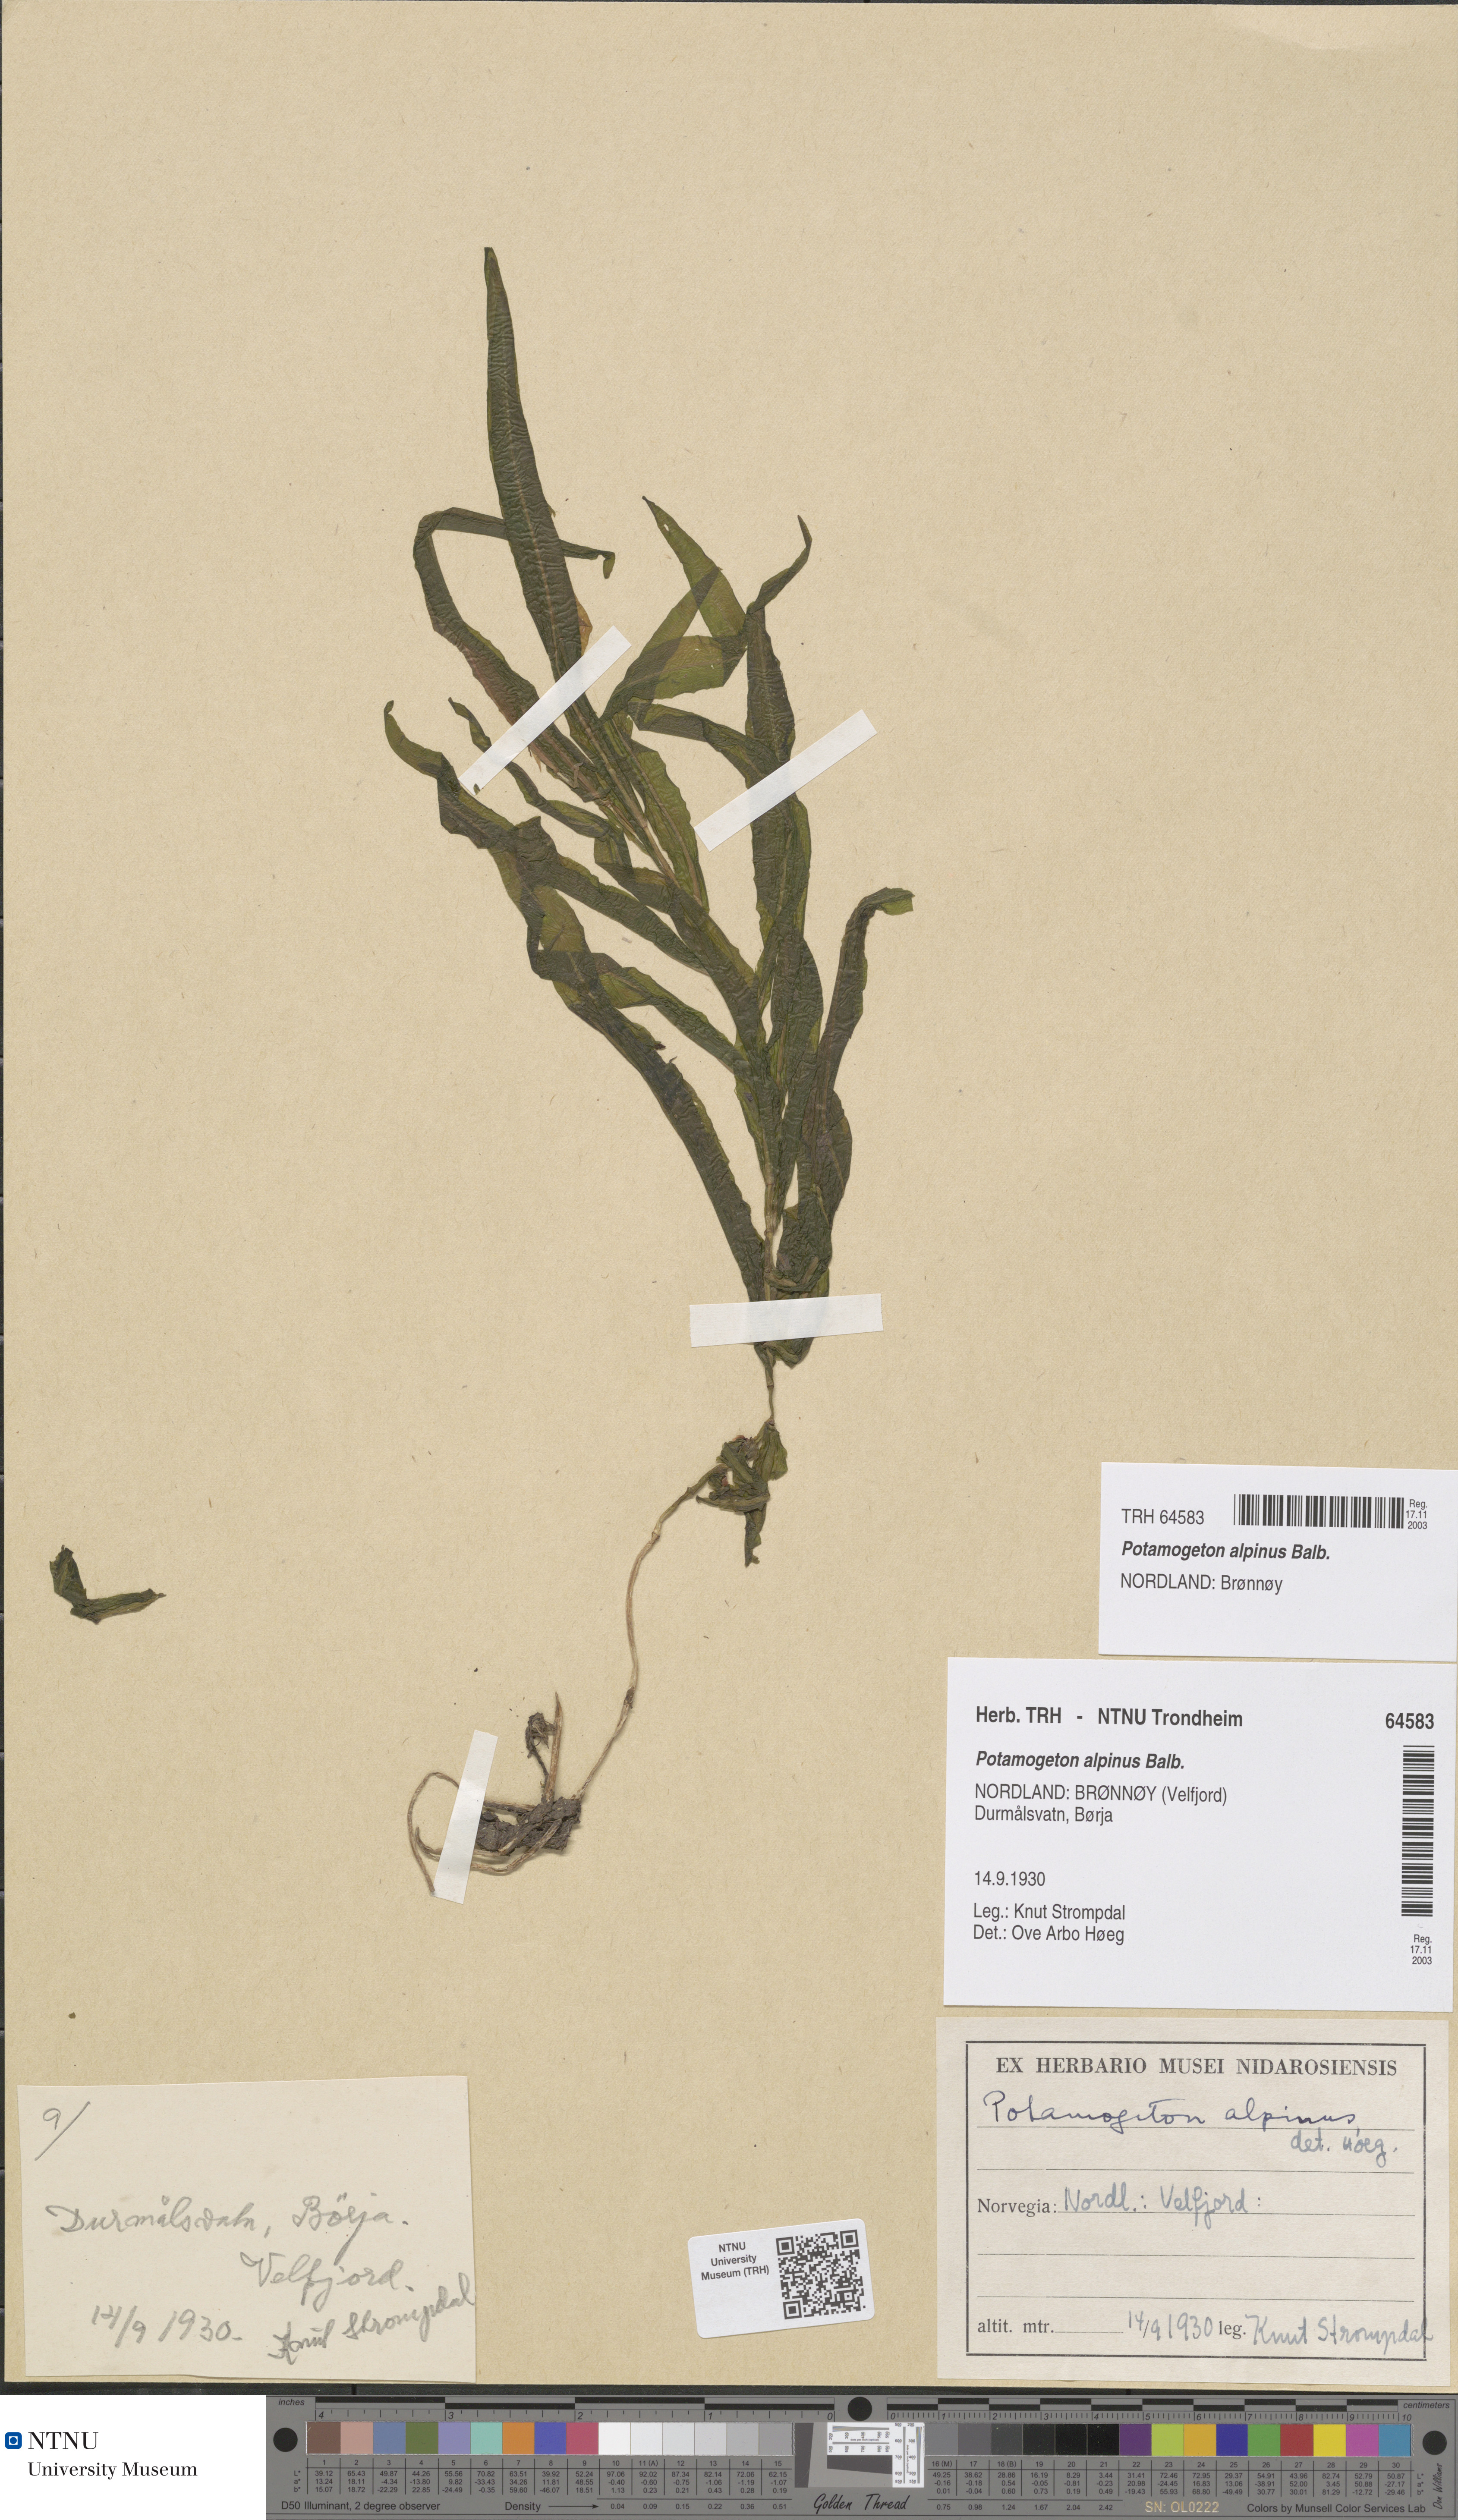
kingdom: Plantae
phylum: Tracheophyta
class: Liliopsida
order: Alismatales
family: Potamogetonaceae
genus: Potamogeton
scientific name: Potamogeton alpinus
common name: Red pondweed
